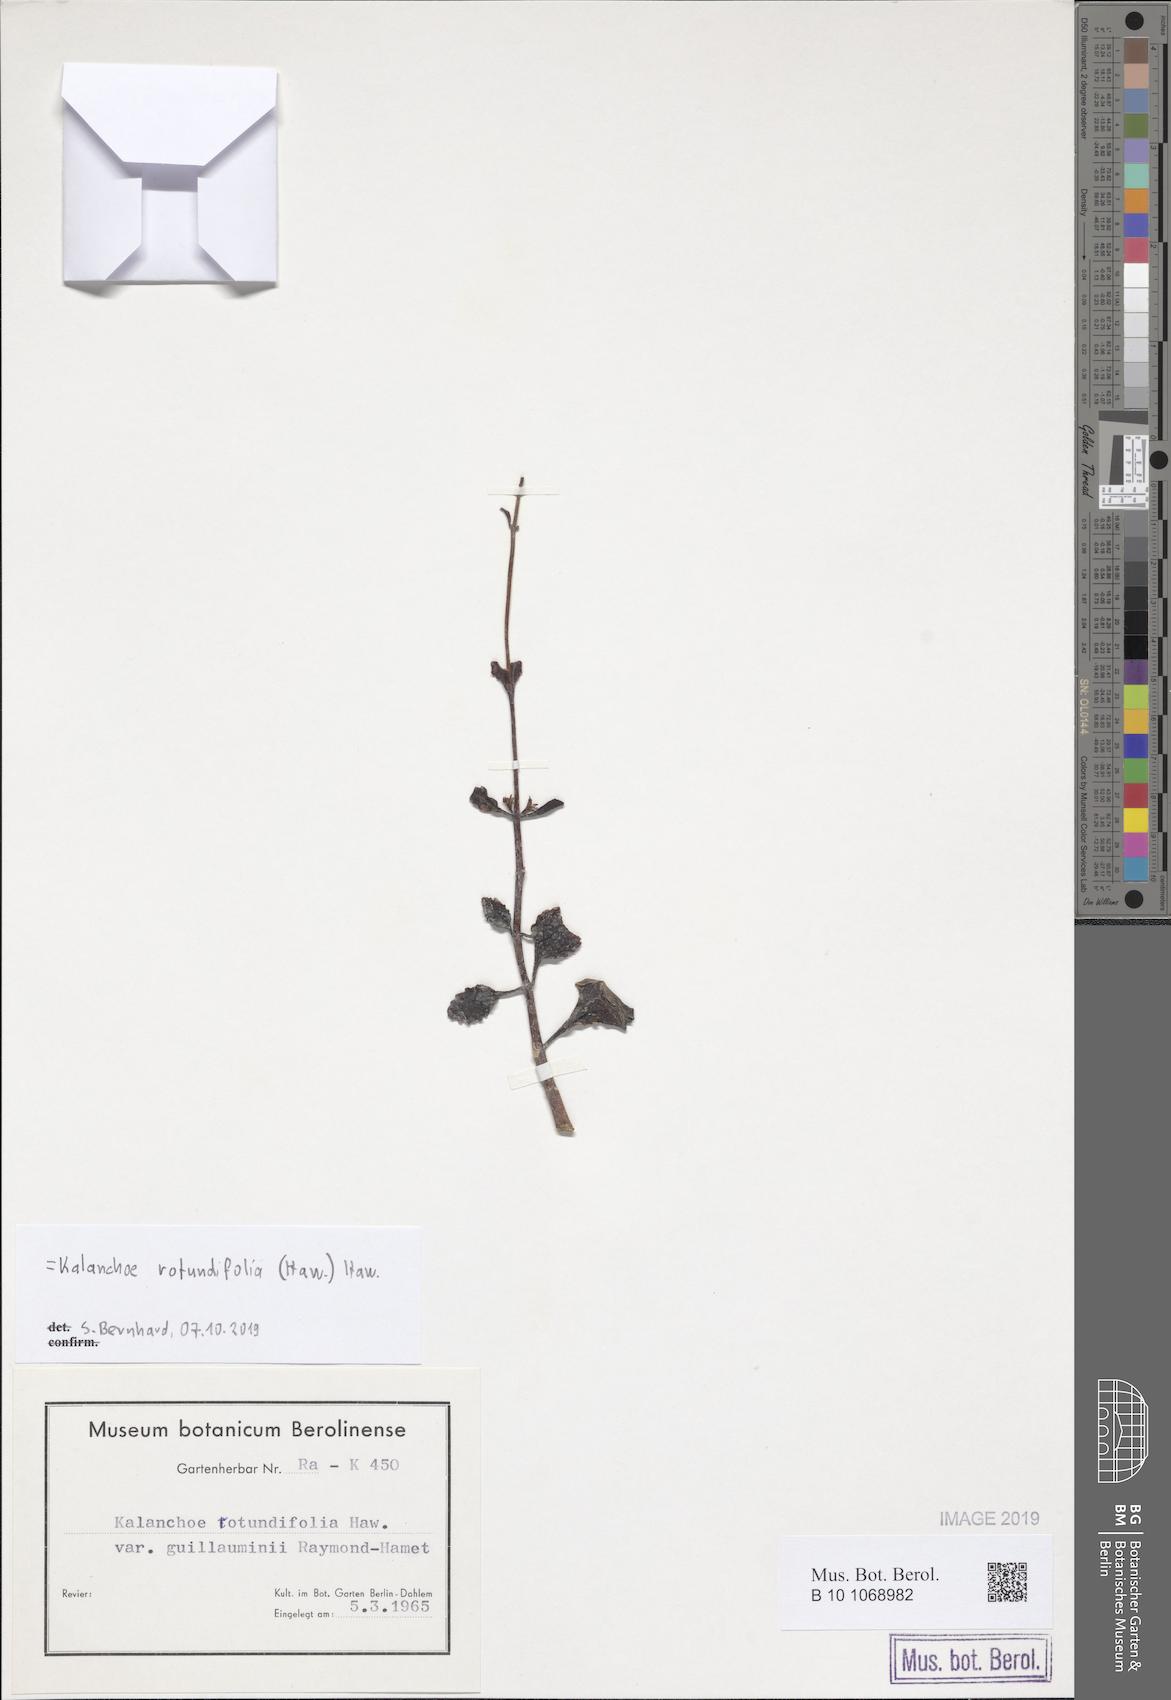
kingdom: Plantae
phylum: Tracheophyta
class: Magnoliopsida
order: Saxifragales
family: Crassulaceae
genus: Kalanchoe
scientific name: Kalanchoe rotundifolia
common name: Common kalanchoe
